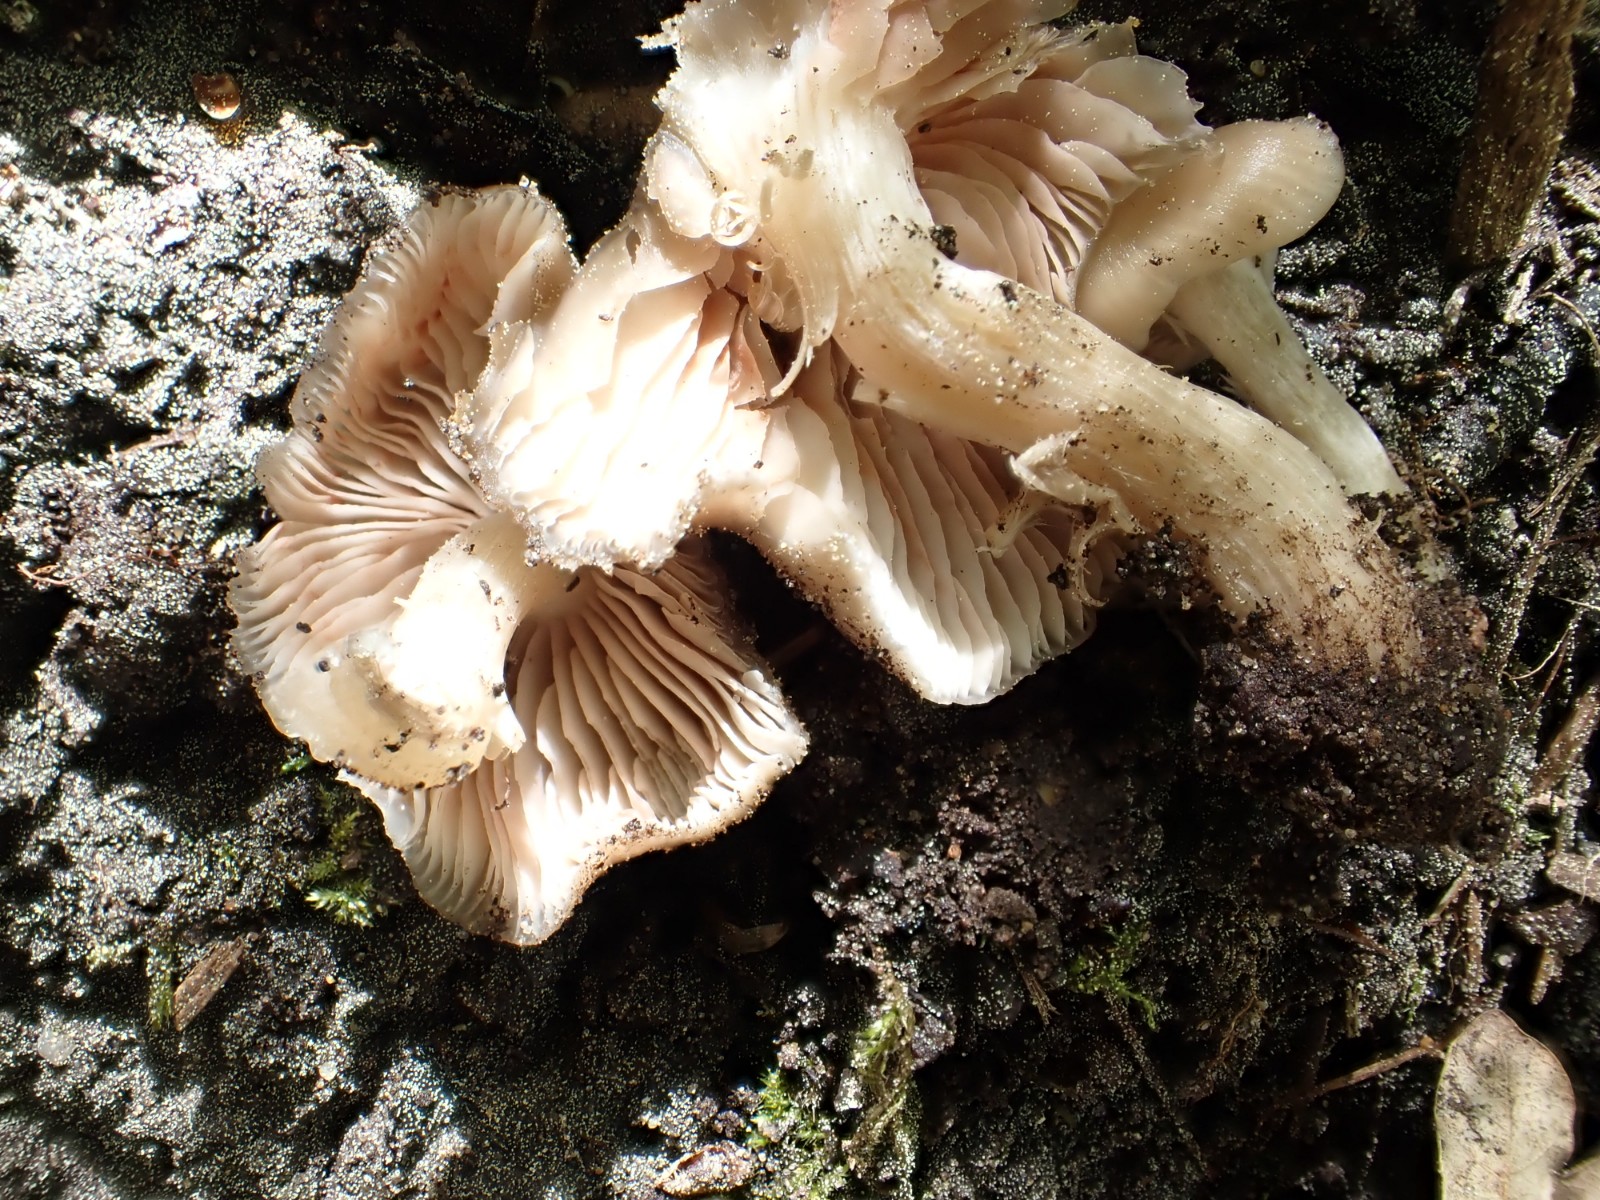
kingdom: Fungi
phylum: Basidiomycota
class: Agaricomycetes
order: Agaricales
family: Entolomataceae
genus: Entoloma
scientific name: Entoloma
